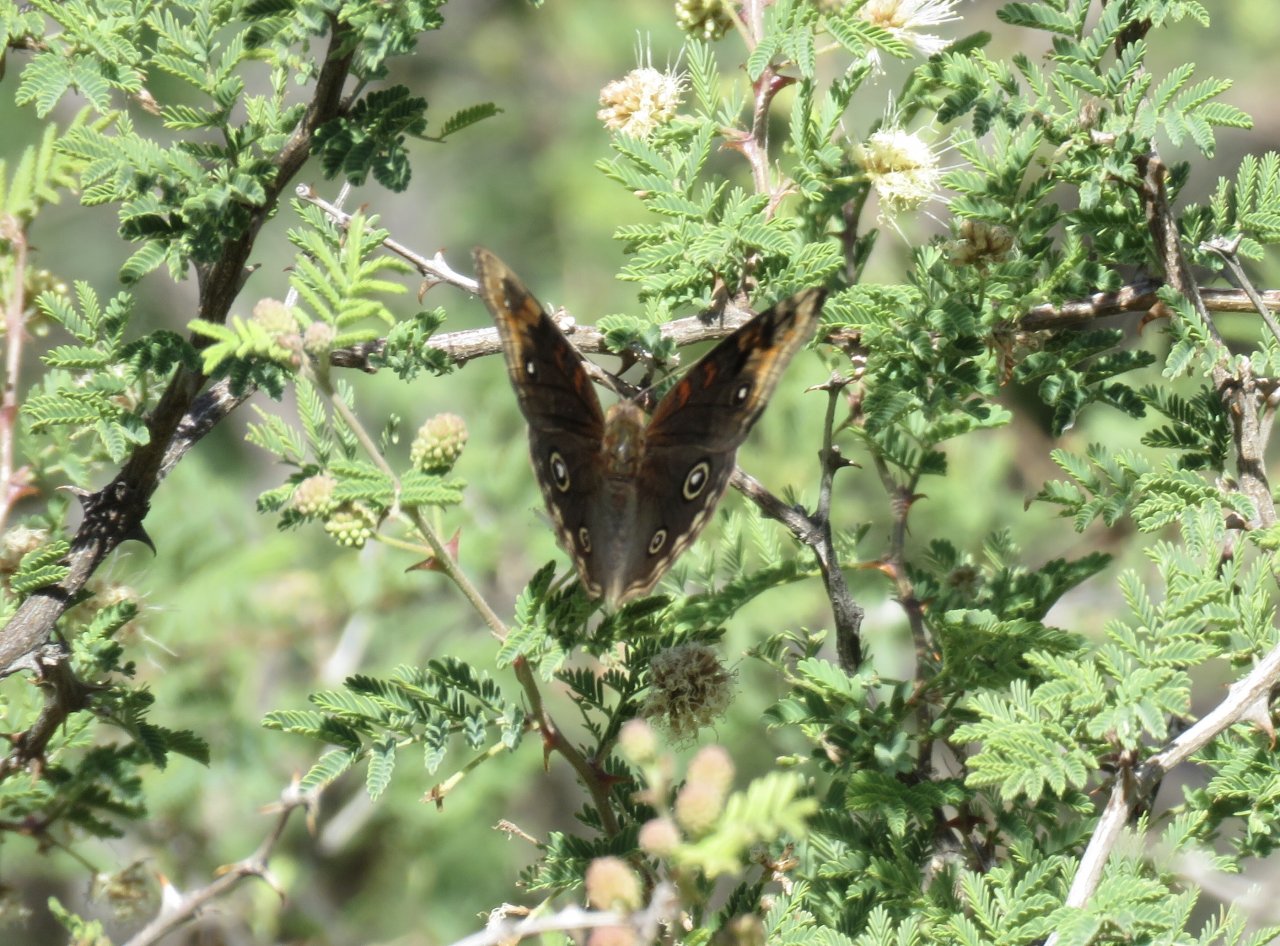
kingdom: Animalia
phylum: Arthropoda
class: Insecta
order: Lepidoptera
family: Nymphalidae
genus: Junonia
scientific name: Junonia lavinia
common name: Tropical Buckeye
